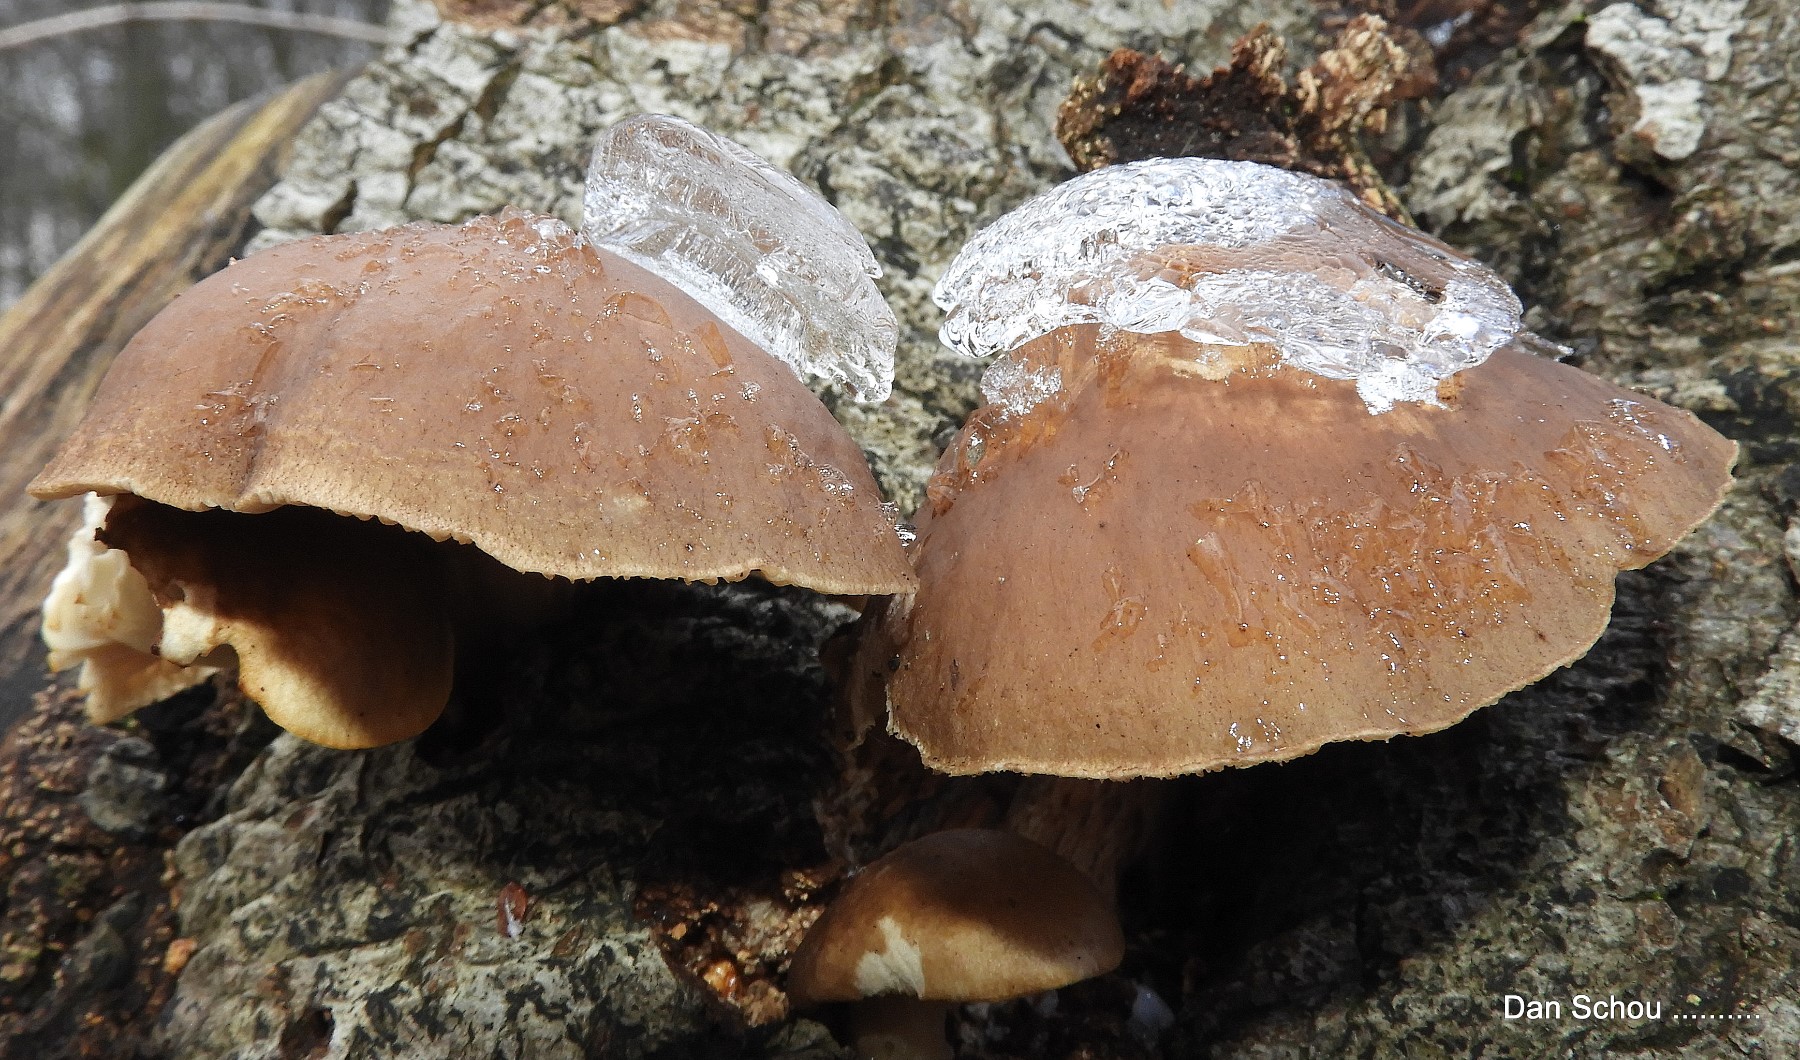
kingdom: Fungi
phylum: Basidiomycota
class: Agaricomycetes
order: Agaricales
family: Pleurotaceae
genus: Pleurotus
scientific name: Pleurotus ostreatus
